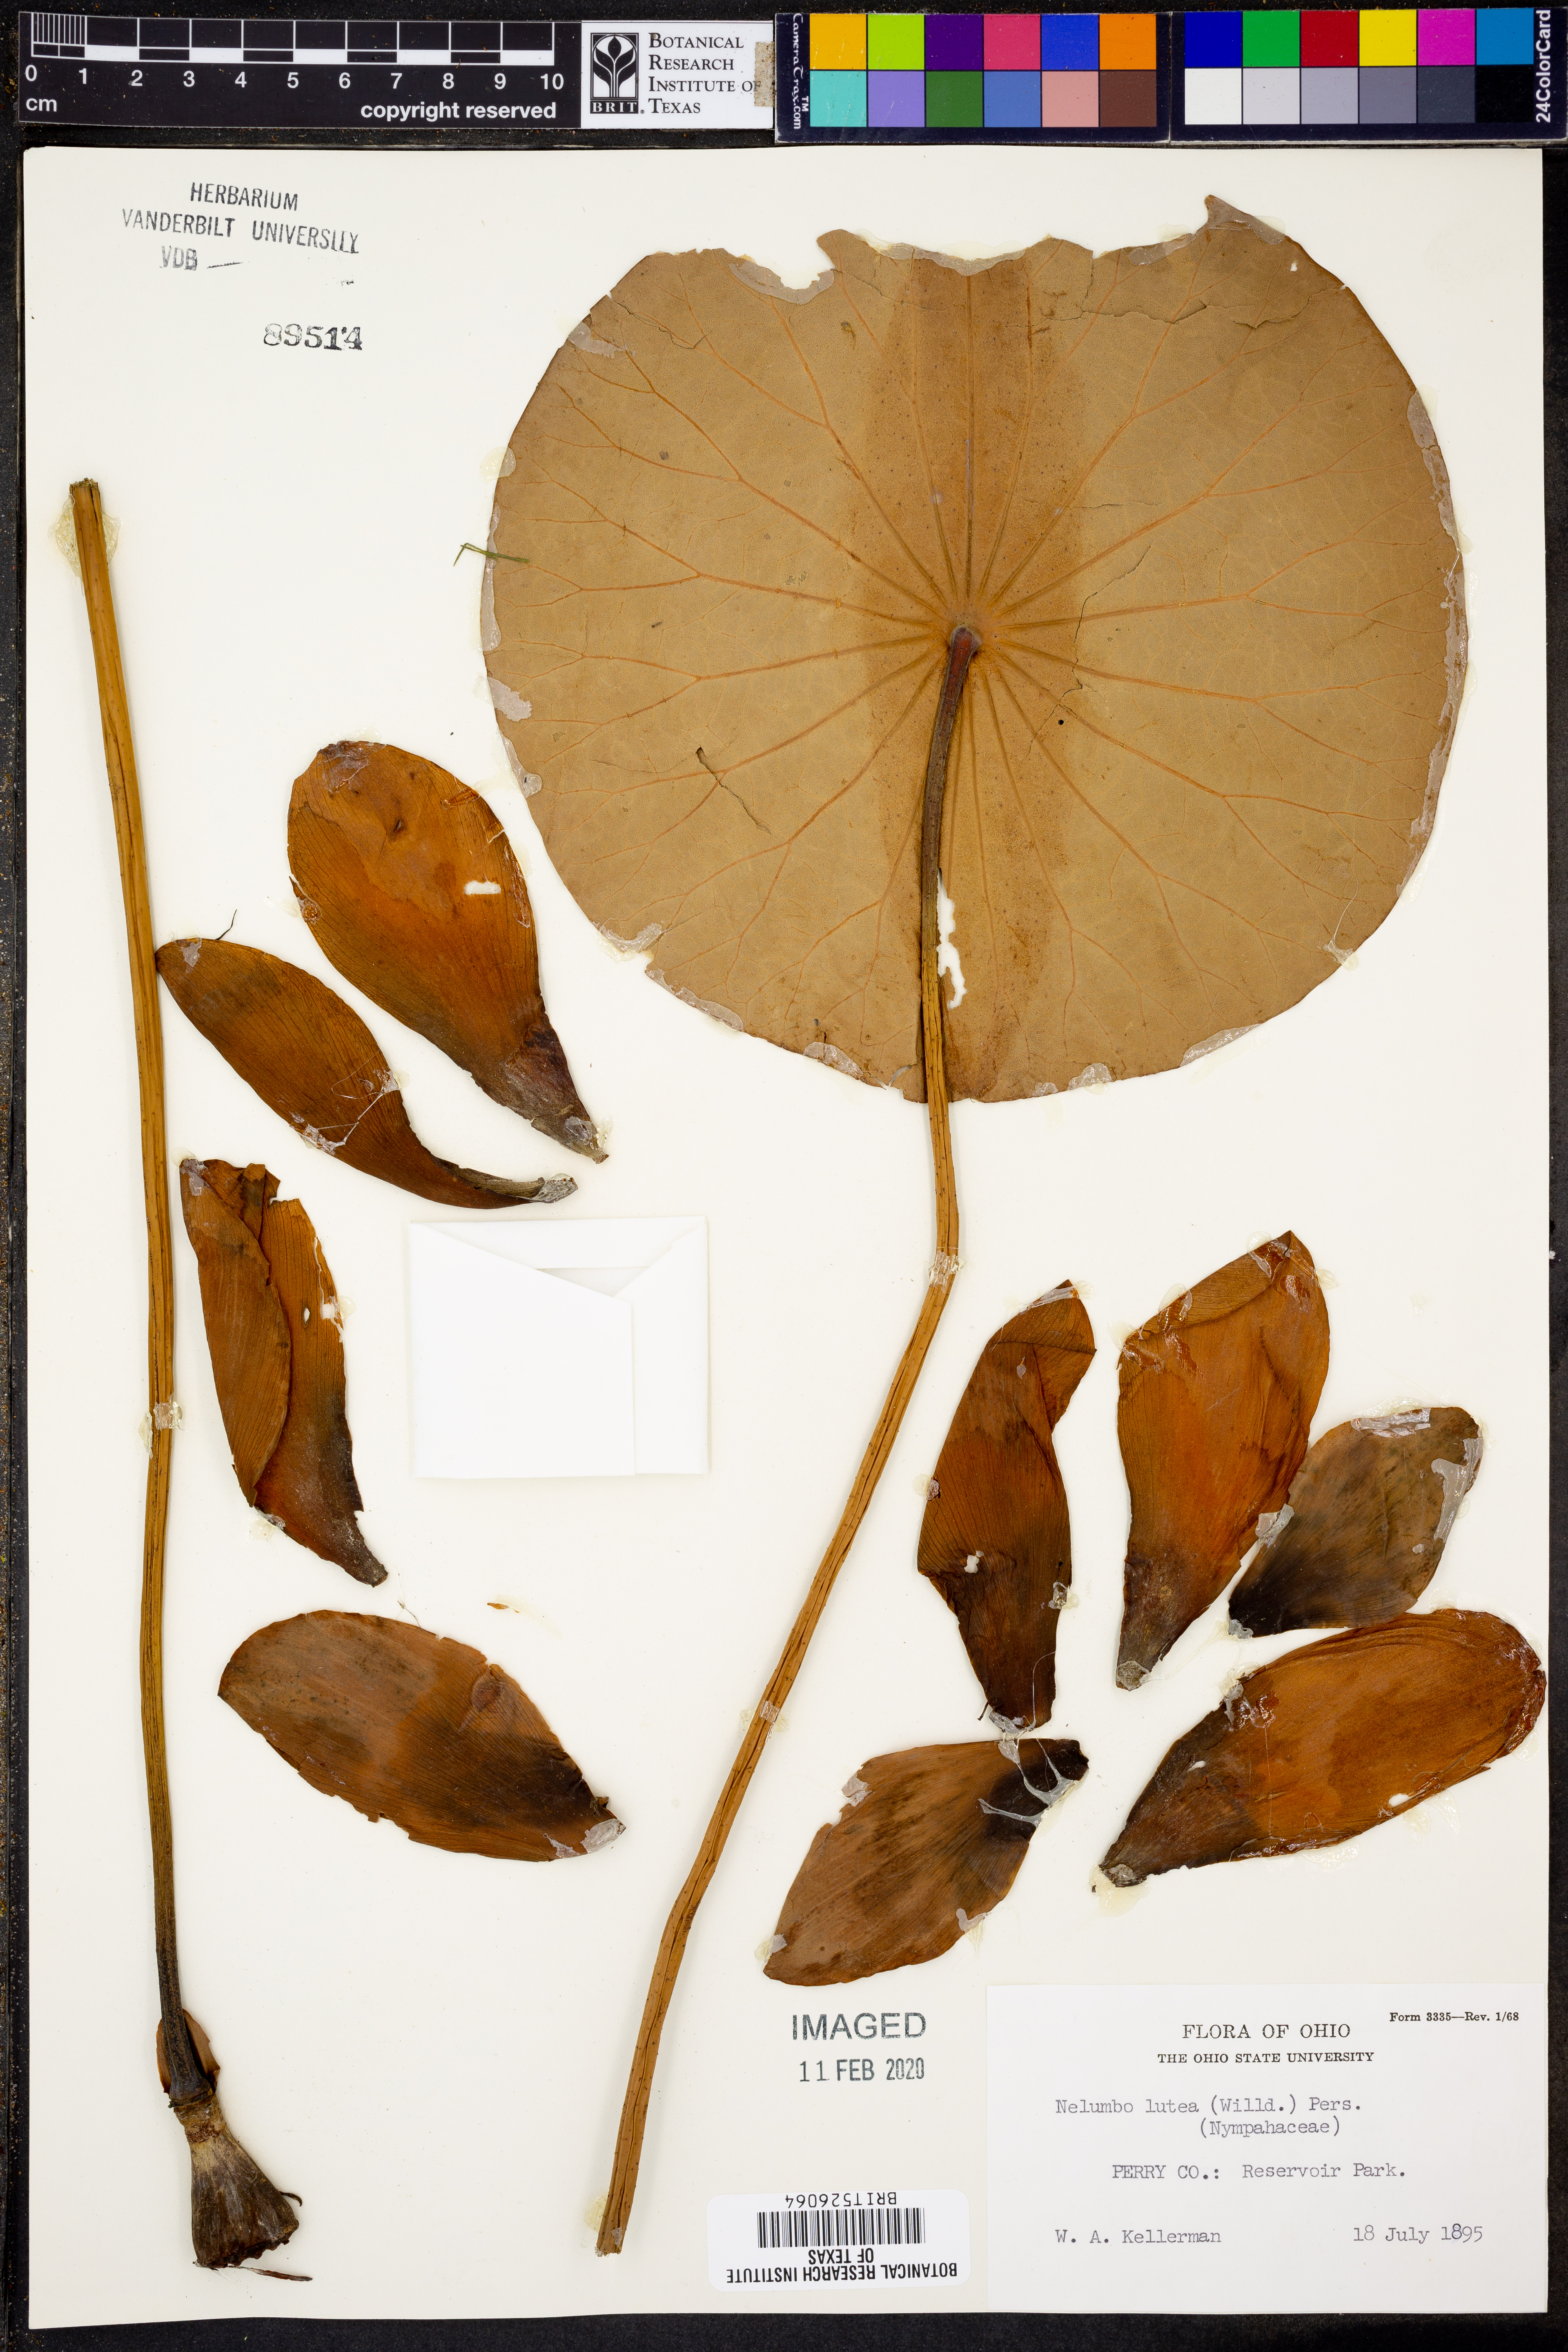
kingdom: Plantae
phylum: Tracheophyta
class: Magnoliopsida
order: Proteales
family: Nelumbonaceae
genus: Nelumbo
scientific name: Nelumbo lutea
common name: American lotus
